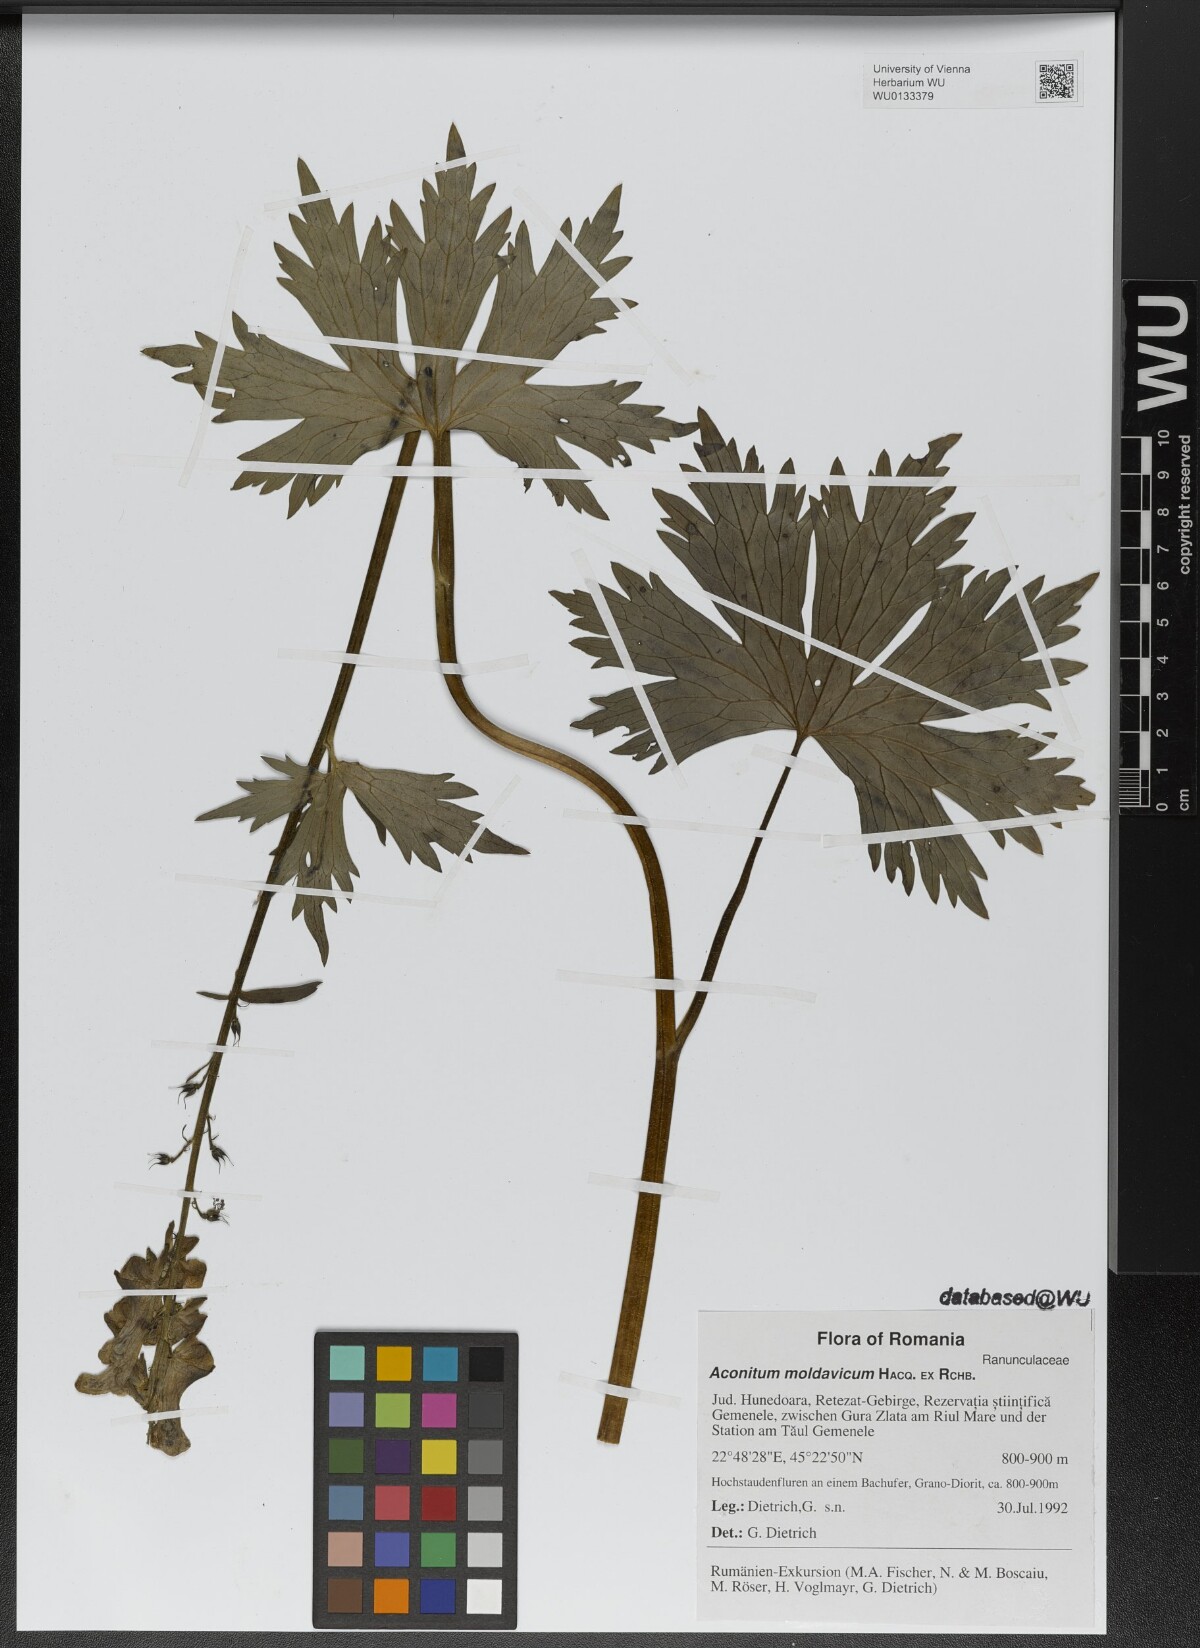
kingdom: Plantae
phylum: Tracheophyta
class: Magnoliopsida
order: Ranunculales
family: Ranunculaceae
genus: Aconitum
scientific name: Aconitum lycoctonum
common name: Wolf's-bane
